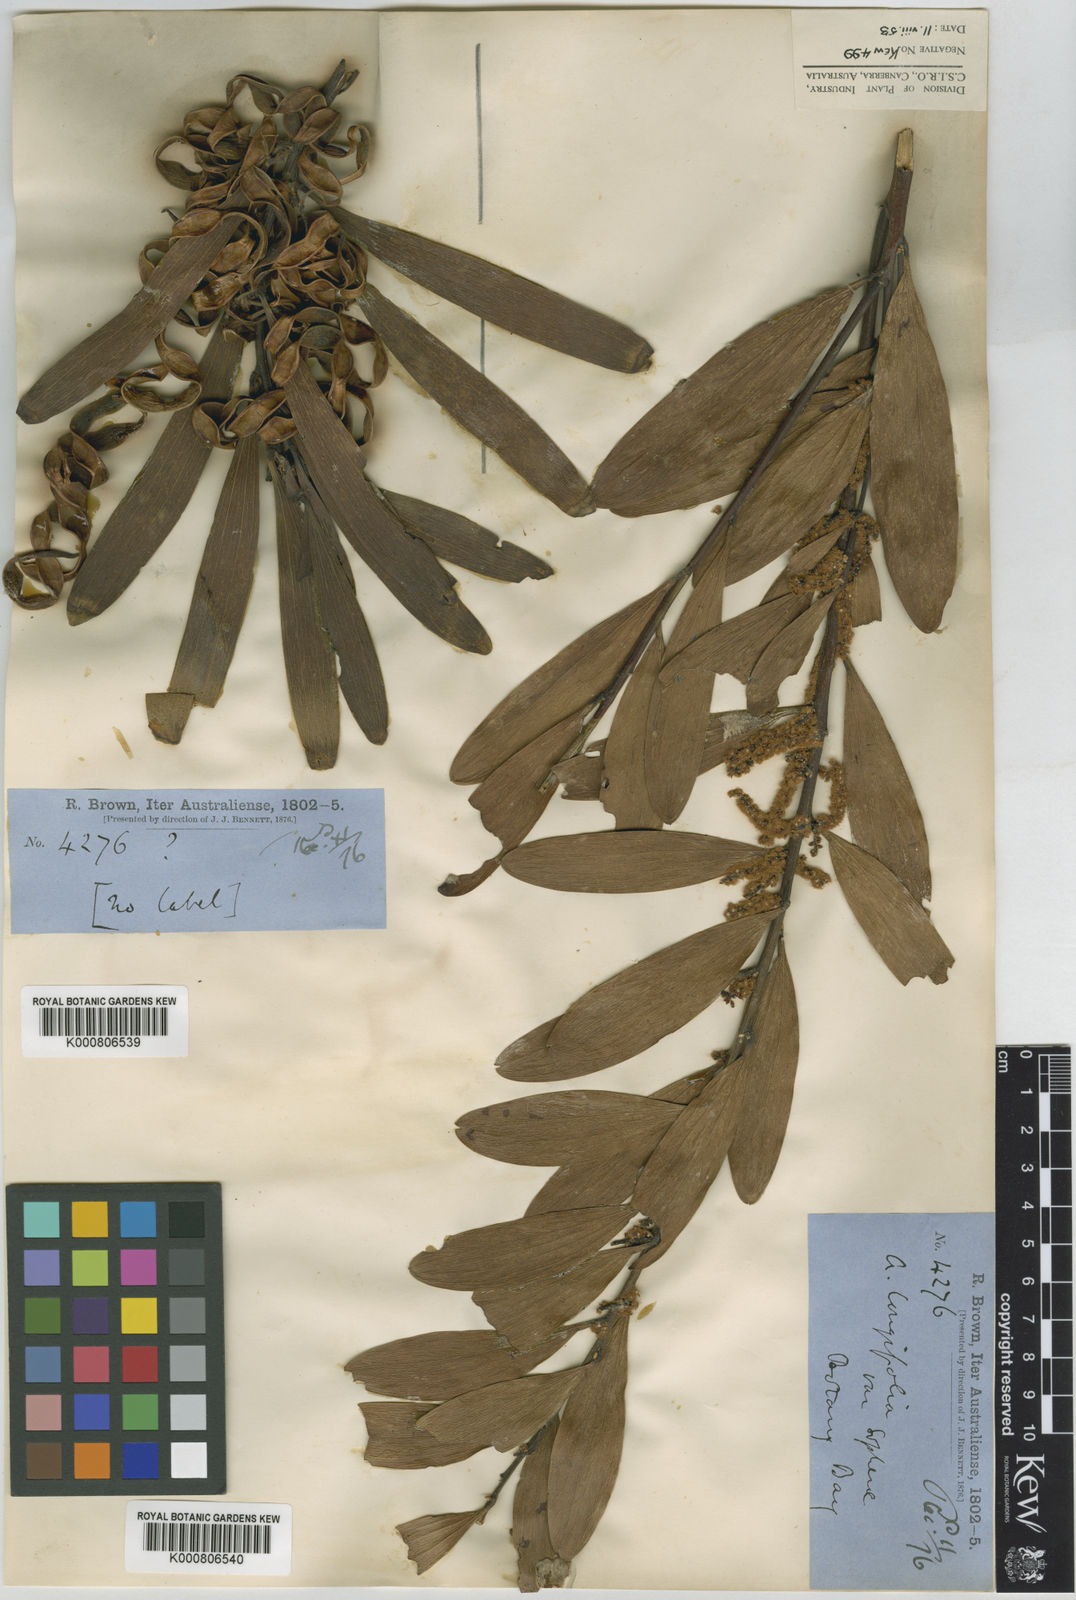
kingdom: Plantae
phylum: Tracheophyta
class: Magnoliopsida
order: Fabales
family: Fabaceae
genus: Acacia
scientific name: Acacia longifolia
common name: Sydney golden wattle
